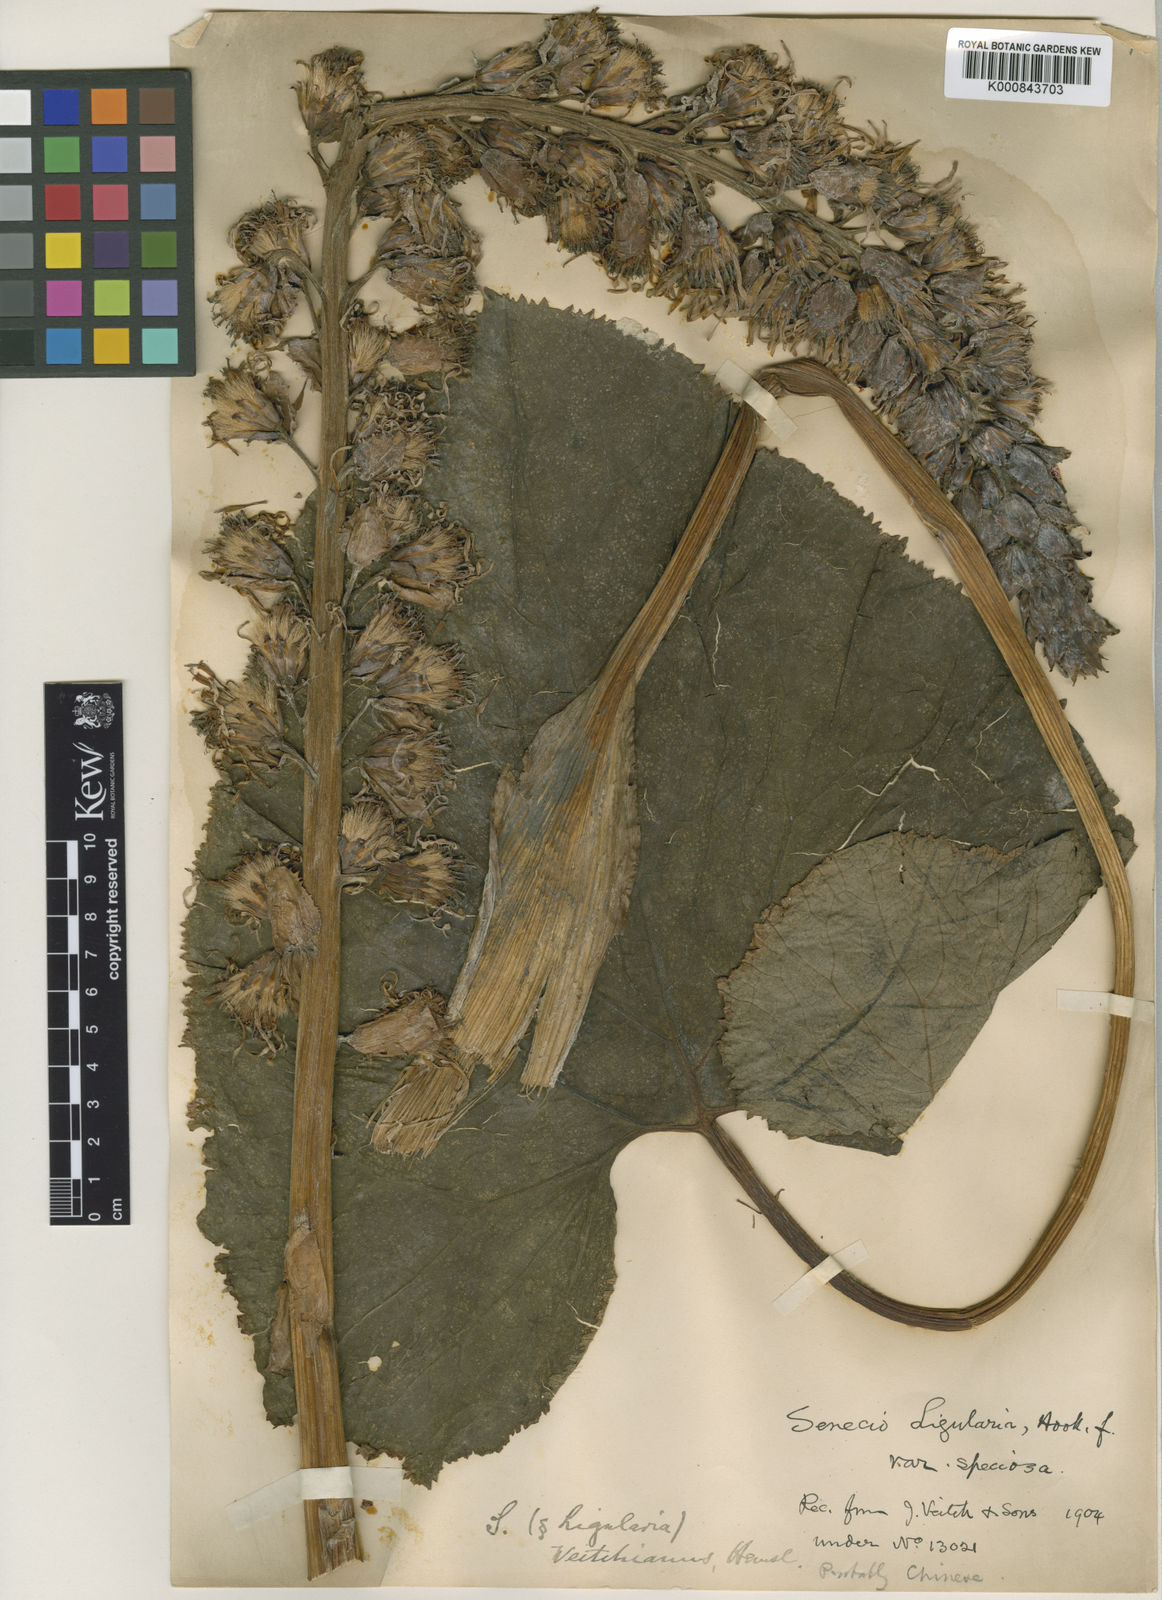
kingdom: Plantae
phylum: Tracheophyta
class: Magnoliopsida
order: Asterales
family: Asteraceae
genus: Senecio
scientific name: Senecio
